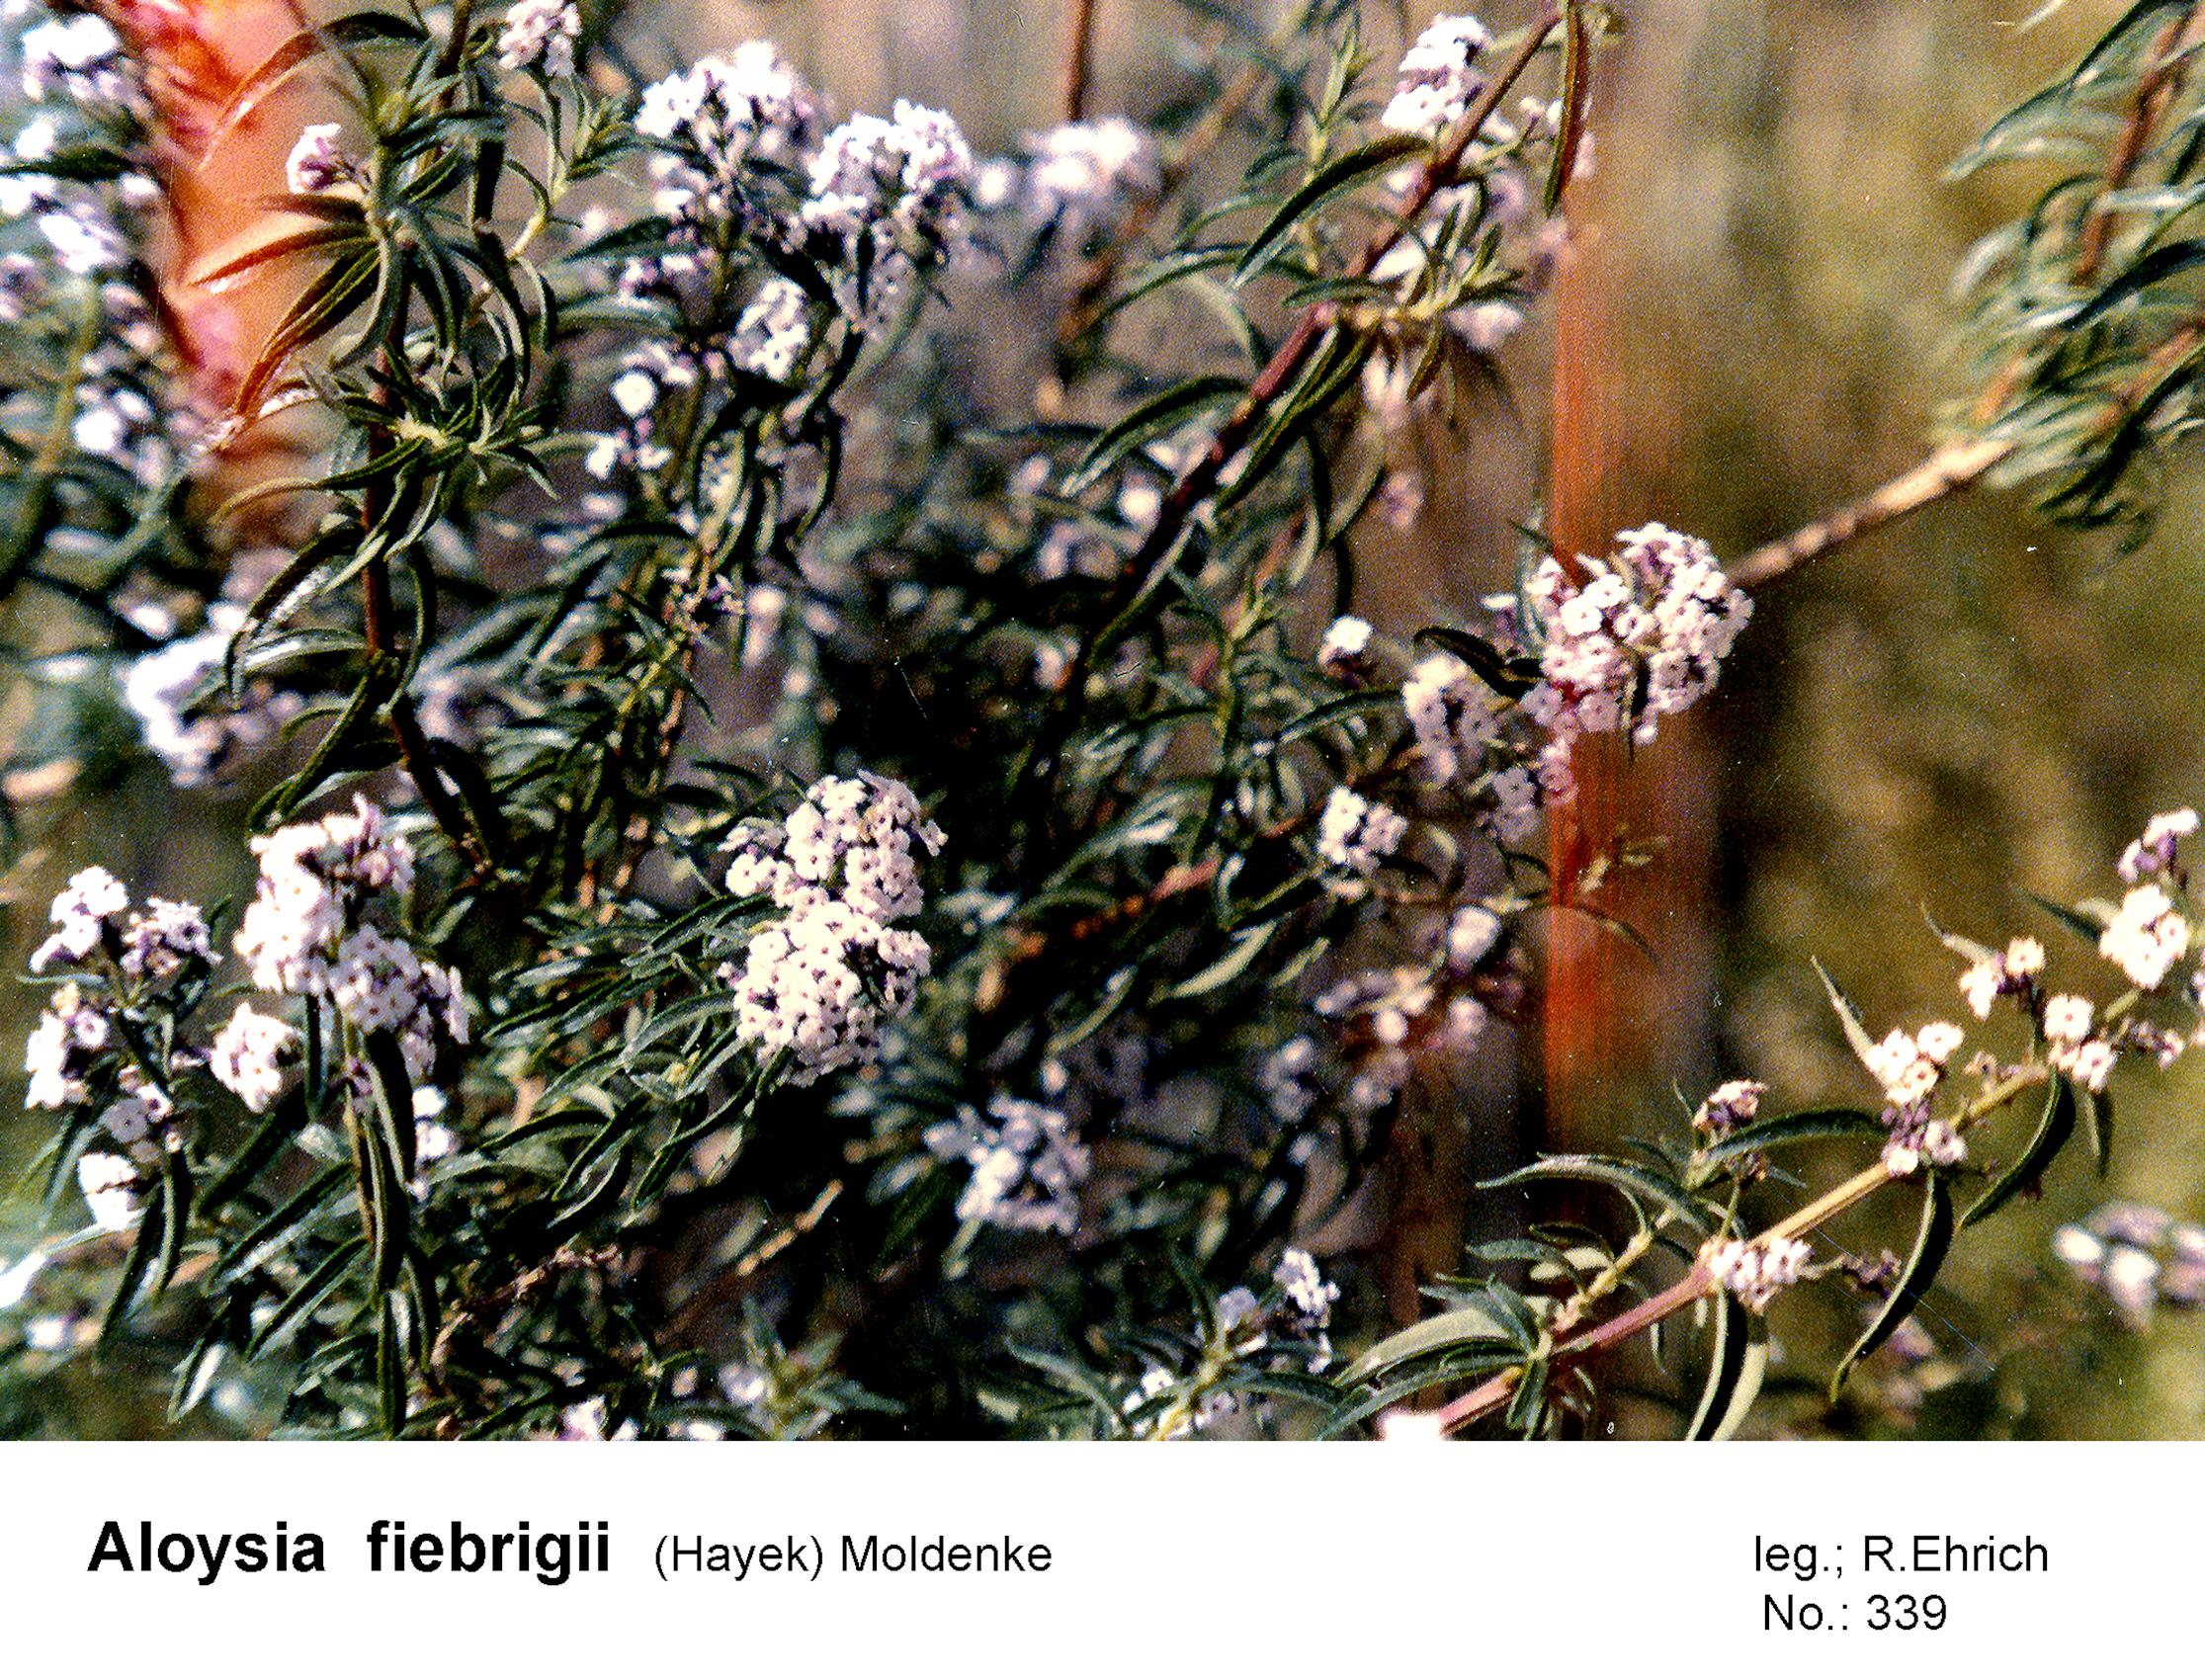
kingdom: Plantae
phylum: Tracheophyta
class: Magnoliopsida
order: Lamiales
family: Verbenaceae
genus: Aloysia
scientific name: Aloysia fiebrigii
